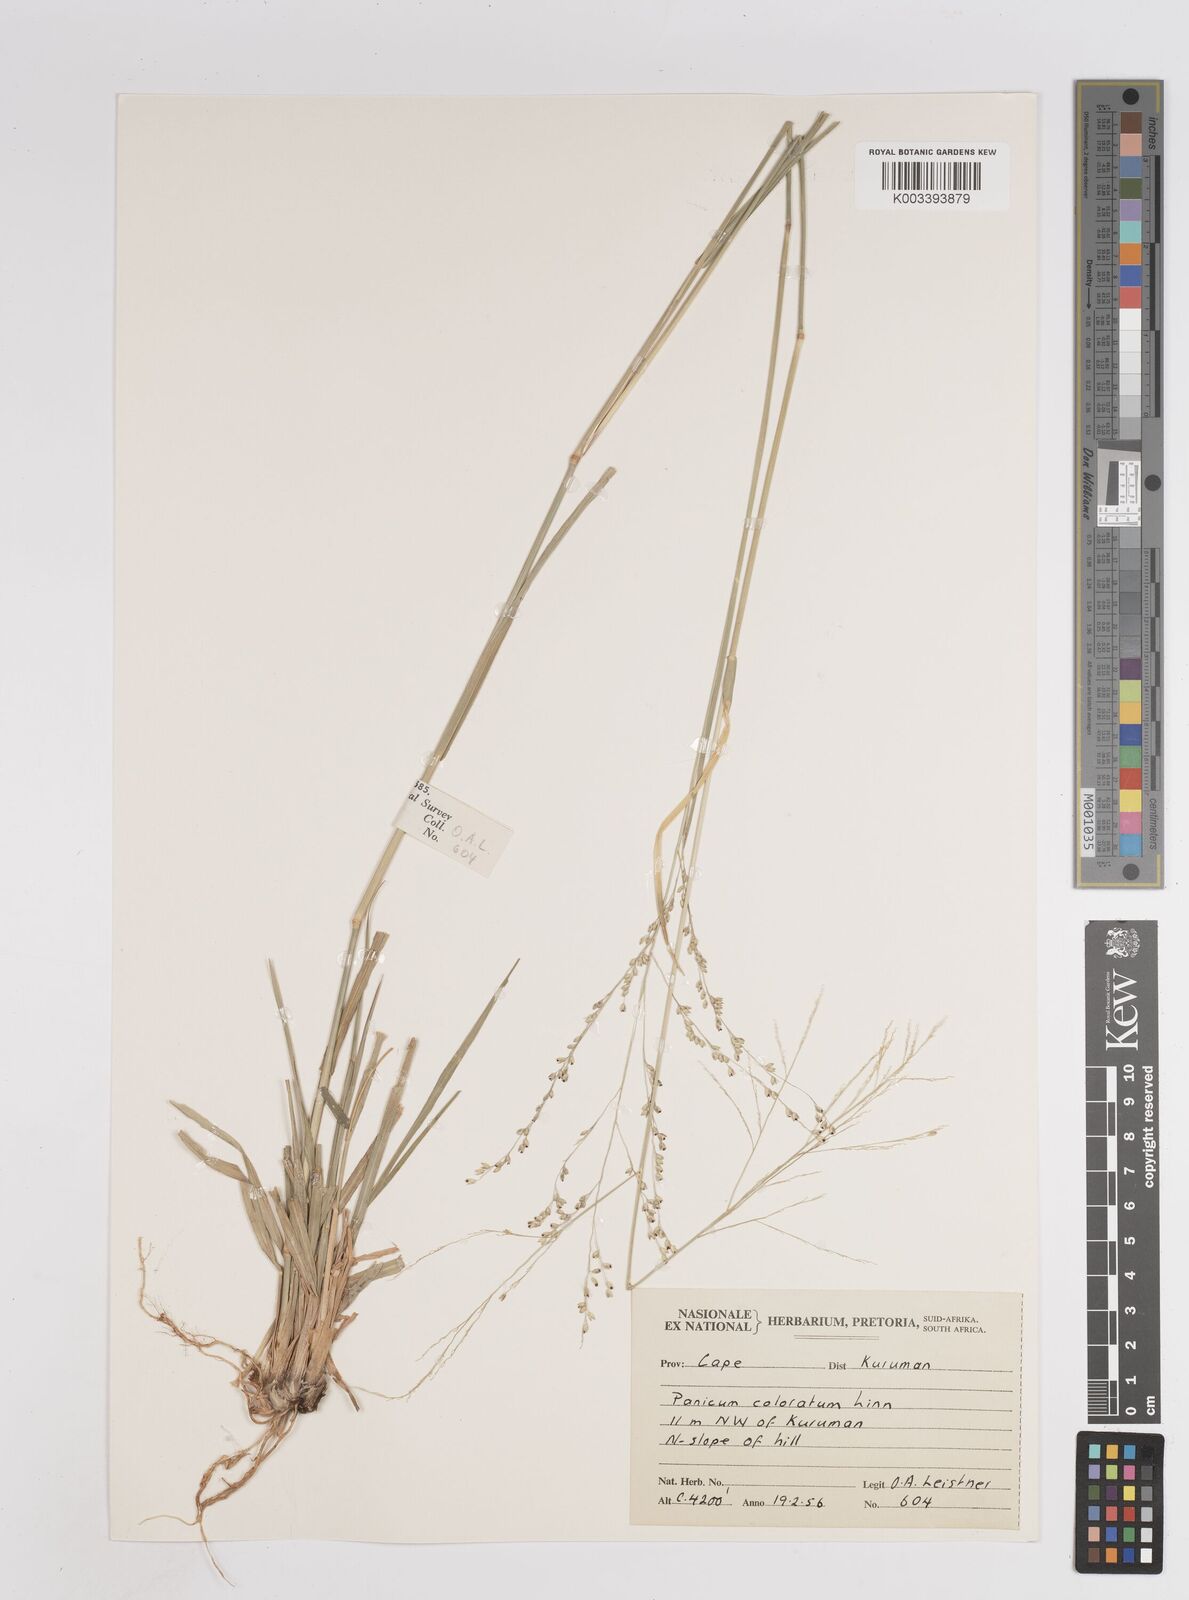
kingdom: Plantae
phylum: Tracheophyta
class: Liliopsida
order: Poales
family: Poaceae
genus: Panicum
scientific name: Panicum
